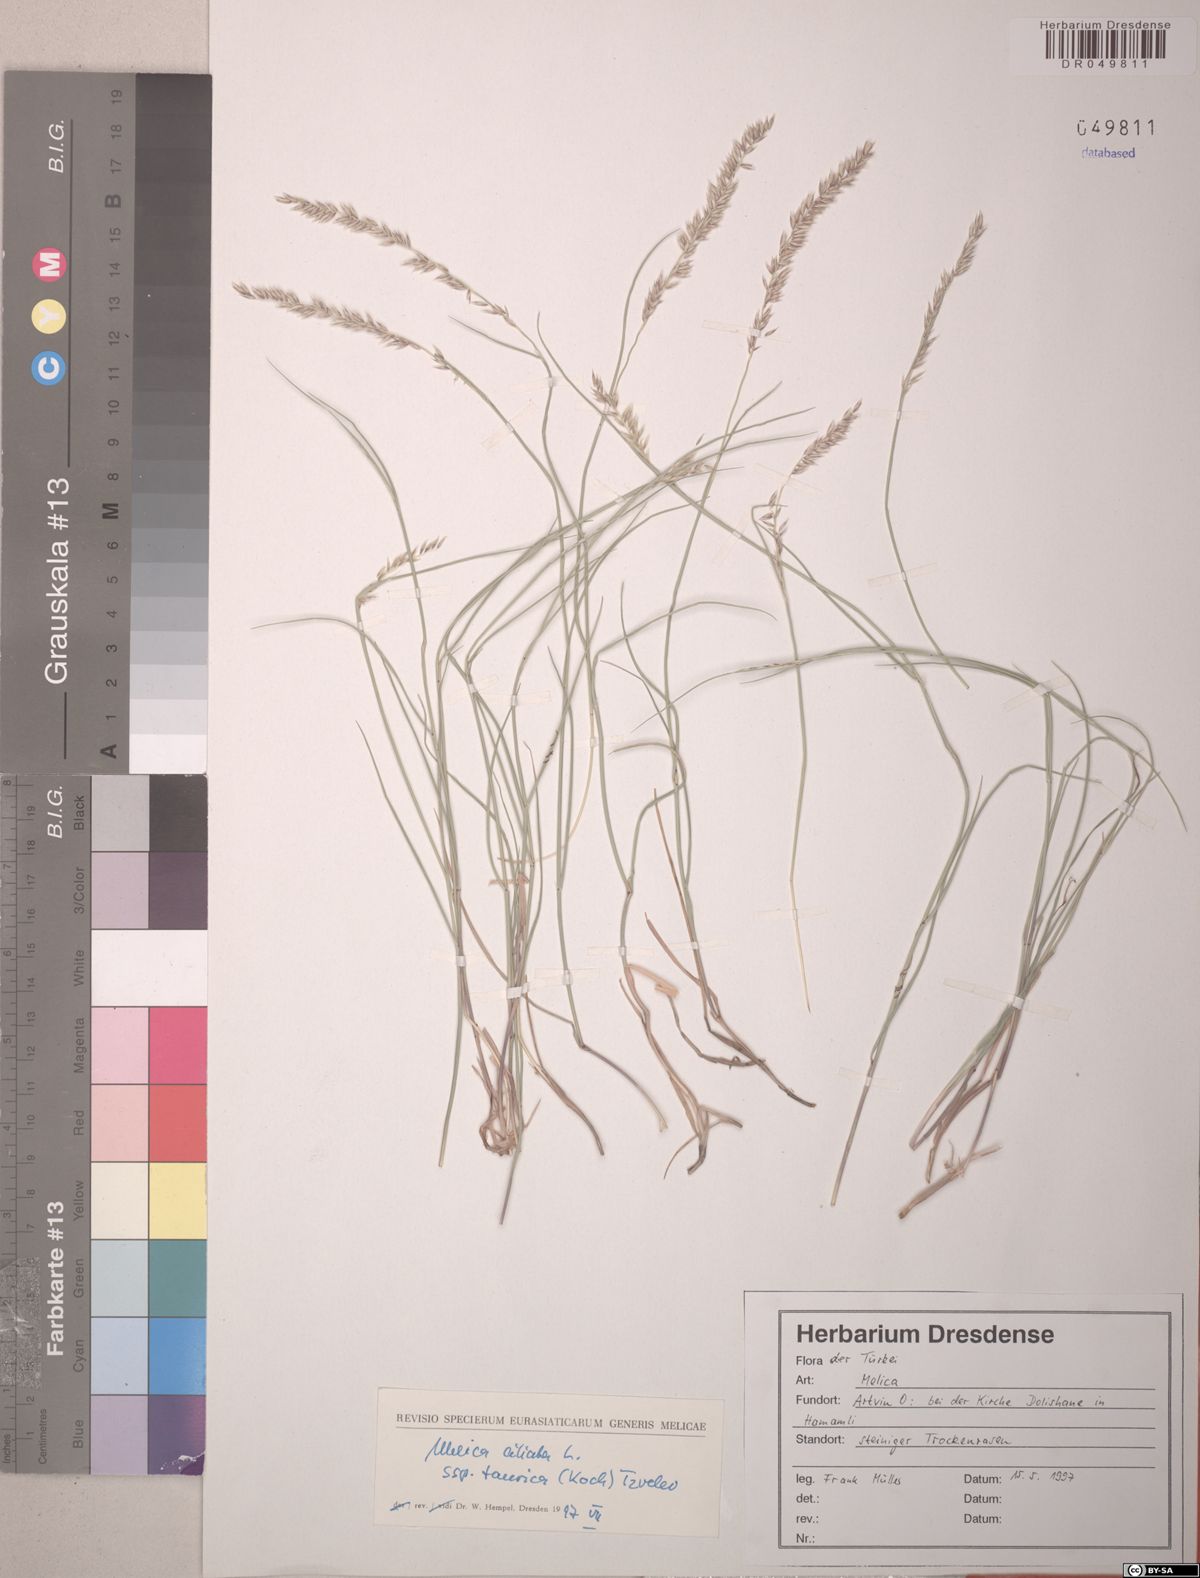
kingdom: Plantae
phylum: Tracheophyta
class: Liliopsida
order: Poales
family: Poaceae
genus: Melica
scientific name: Melica ciliata
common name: Hairy melicgrass
